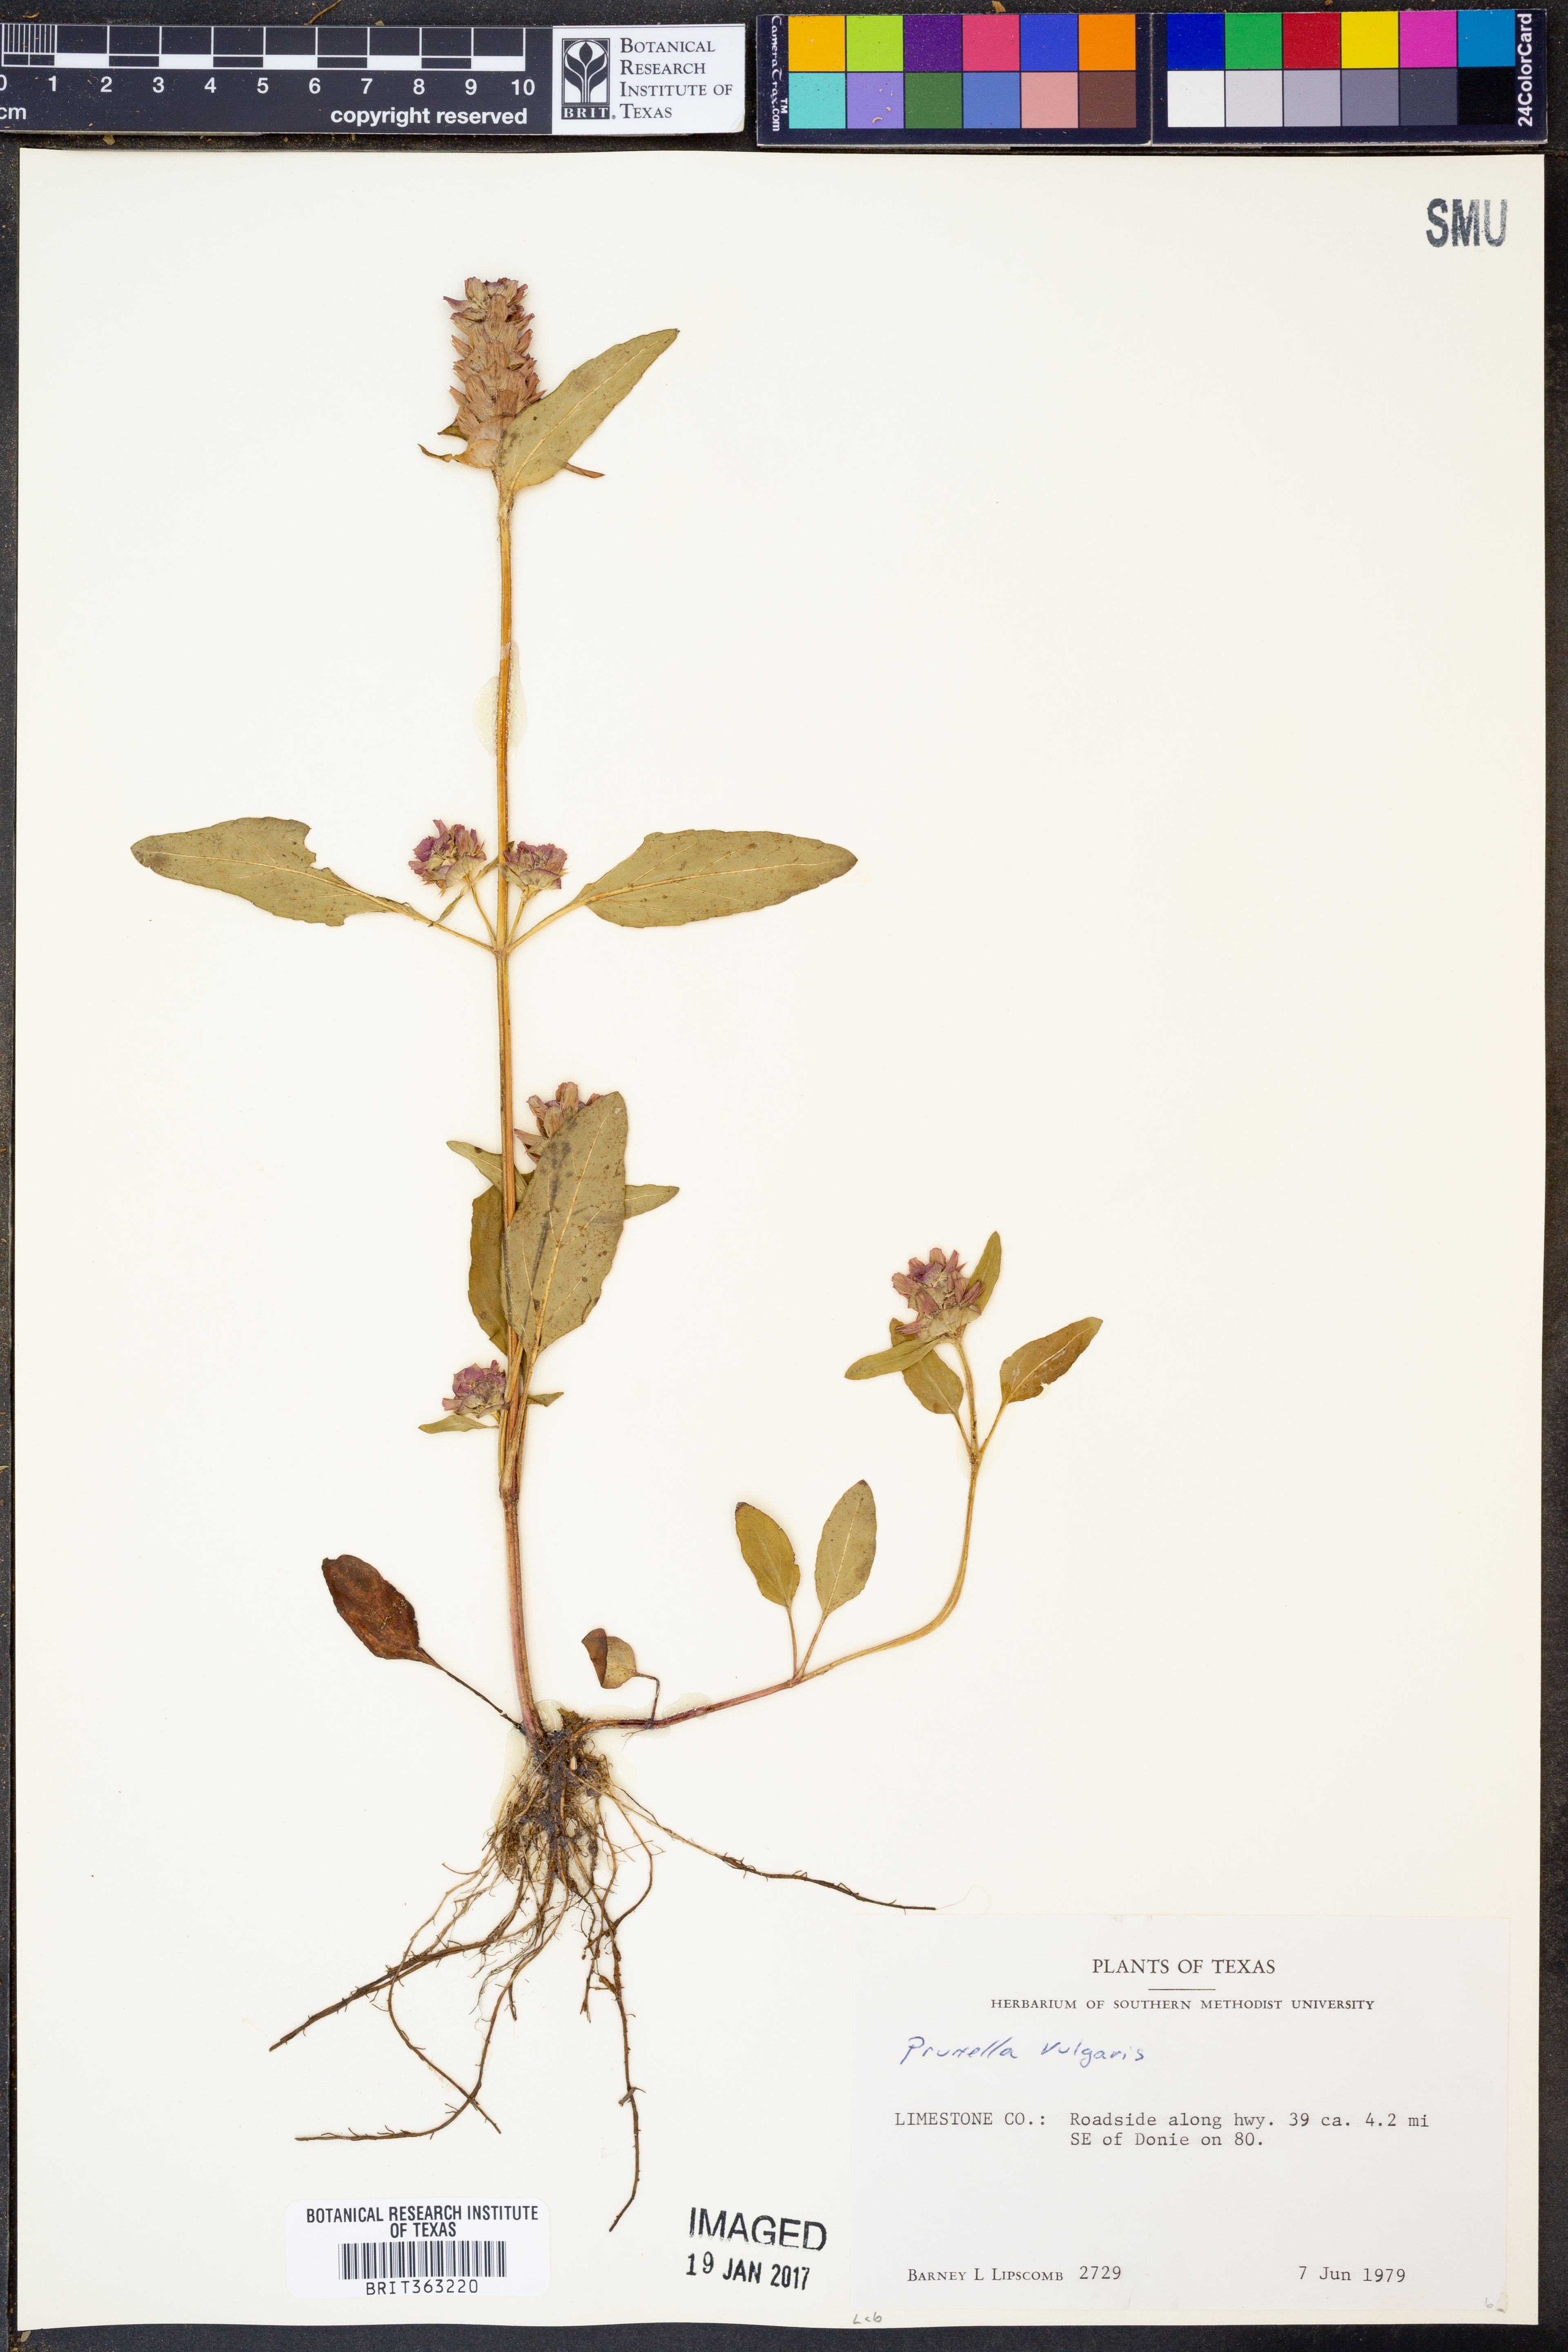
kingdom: Plantae
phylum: Tracheophyta
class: Magnoliopsida
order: Lamiales
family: Lamiaceae
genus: Prunella
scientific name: Prunella vulgaris
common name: Heal-all
